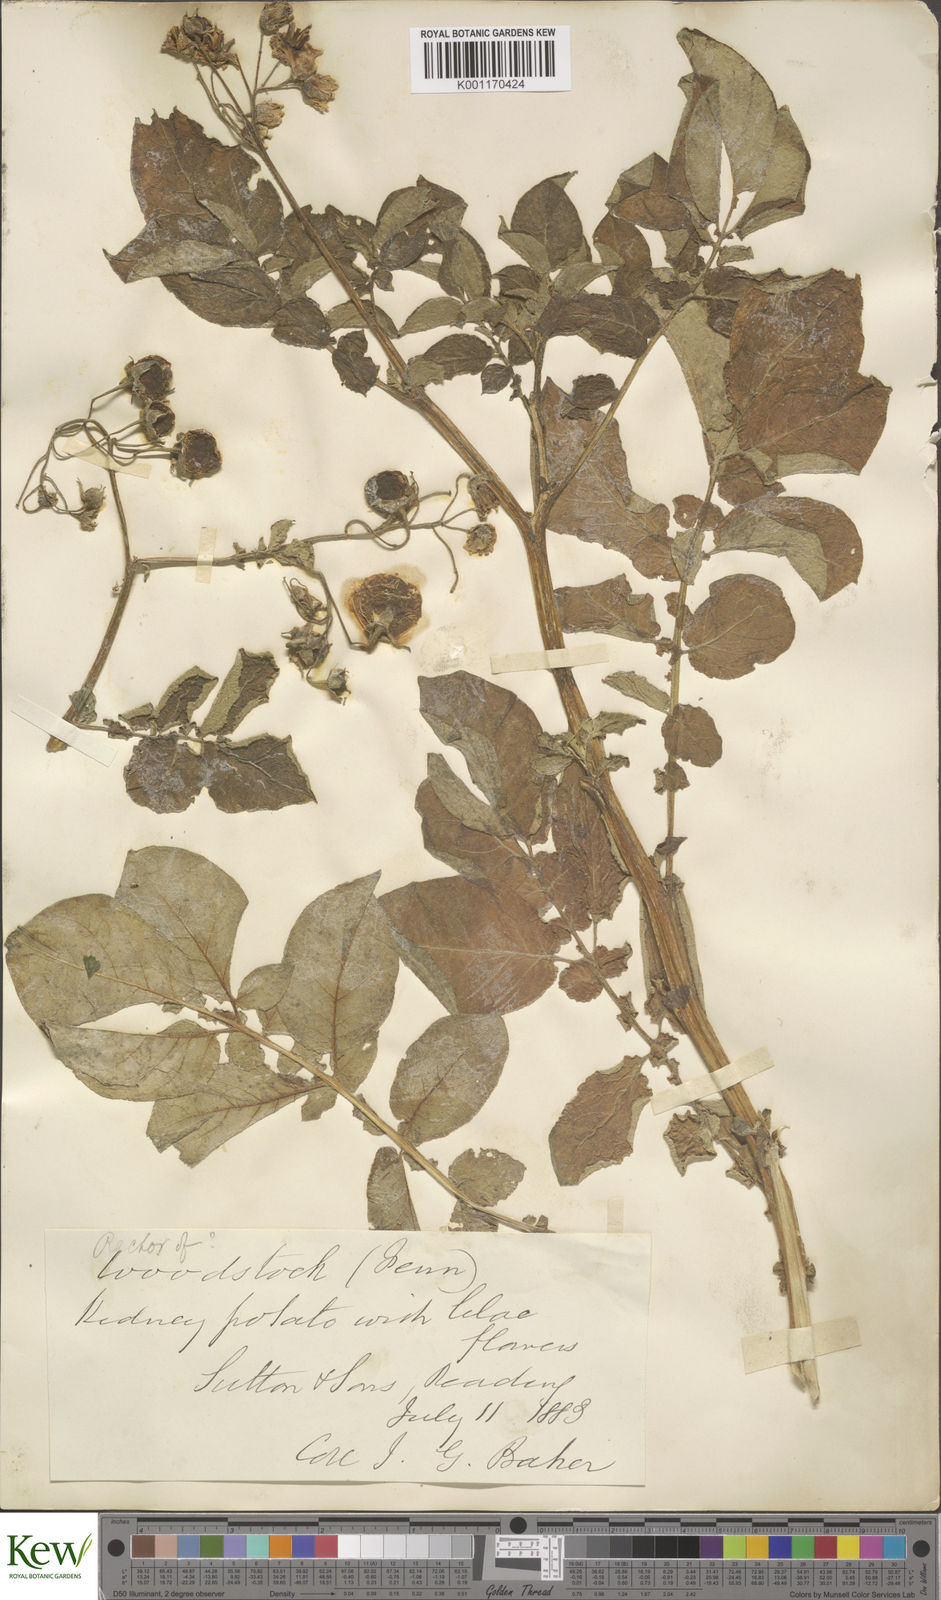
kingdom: Plantae
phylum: Tracheophyta
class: Magnoliopsida
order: Solanales
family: Solanaceae
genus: Solanum
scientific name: Solanum tuberosum
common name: Potato
